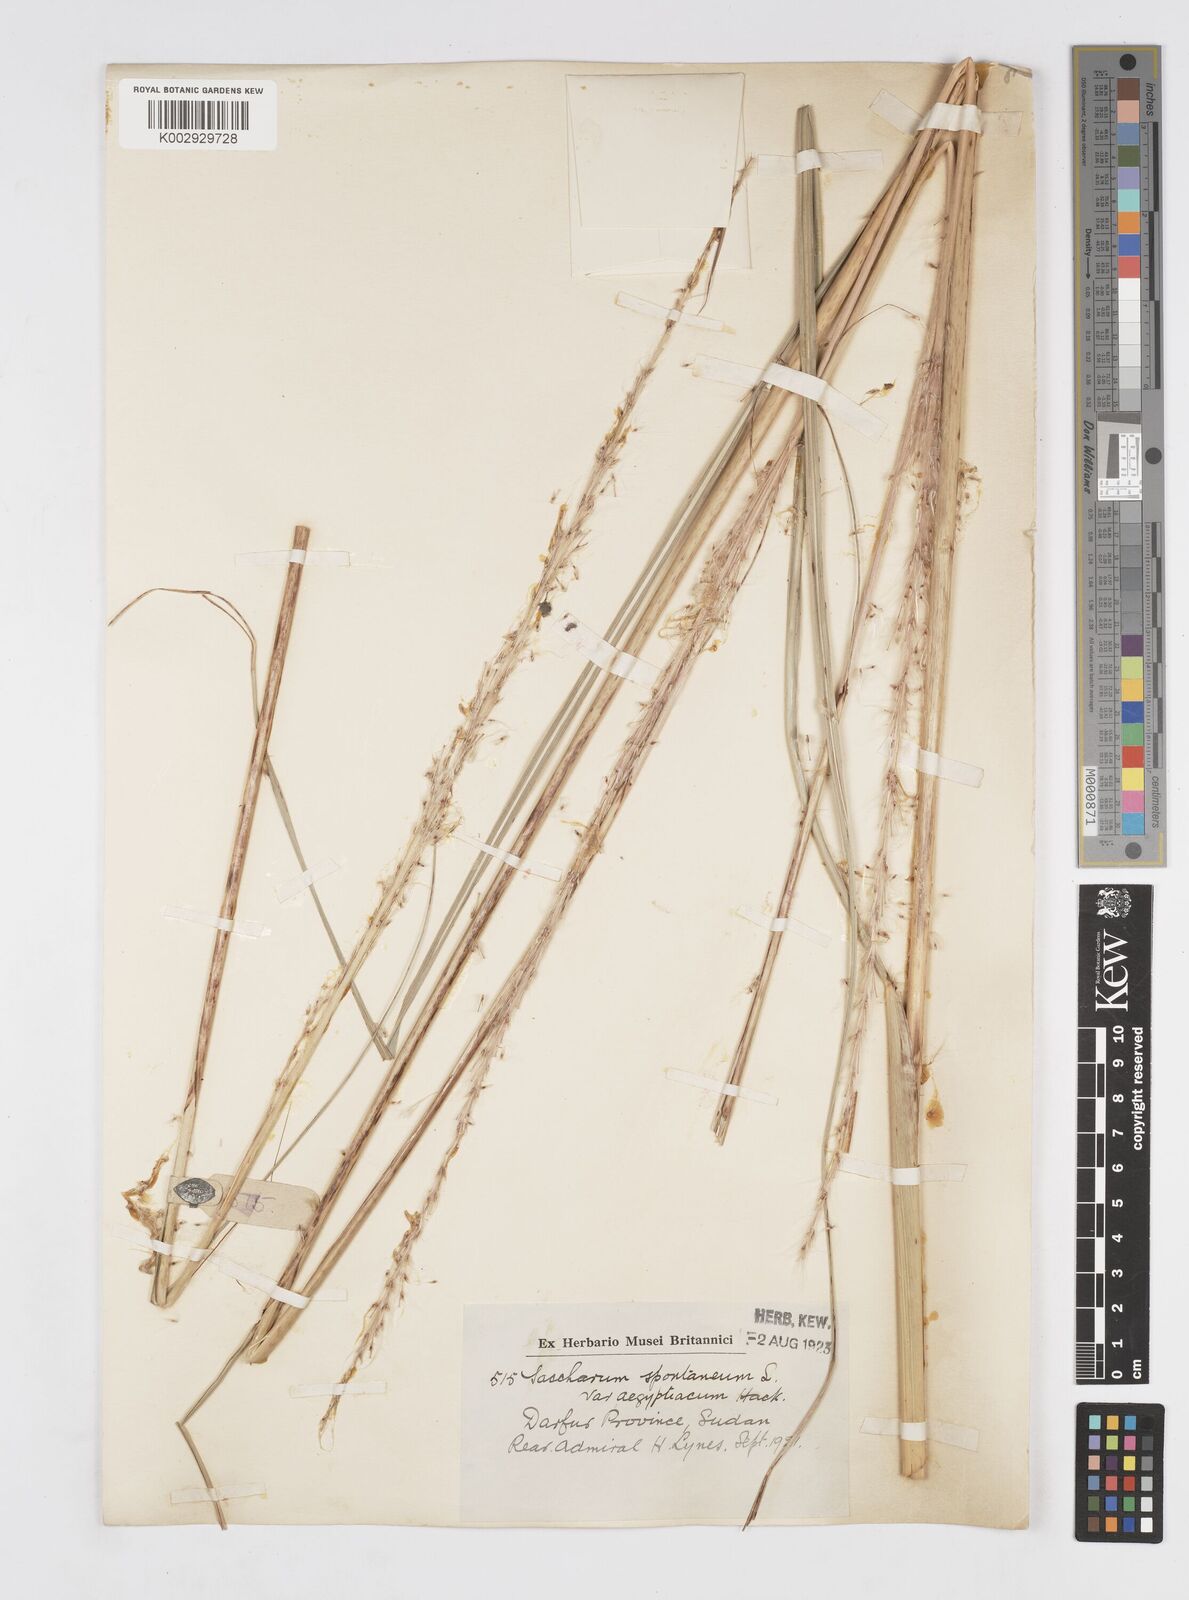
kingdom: Plantae
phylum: Tracheophyta
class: Liliopsida
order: Poales
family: Poaceae
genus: Saccharum
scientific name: Saccharum spontaneum
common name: Wild sugarcane
